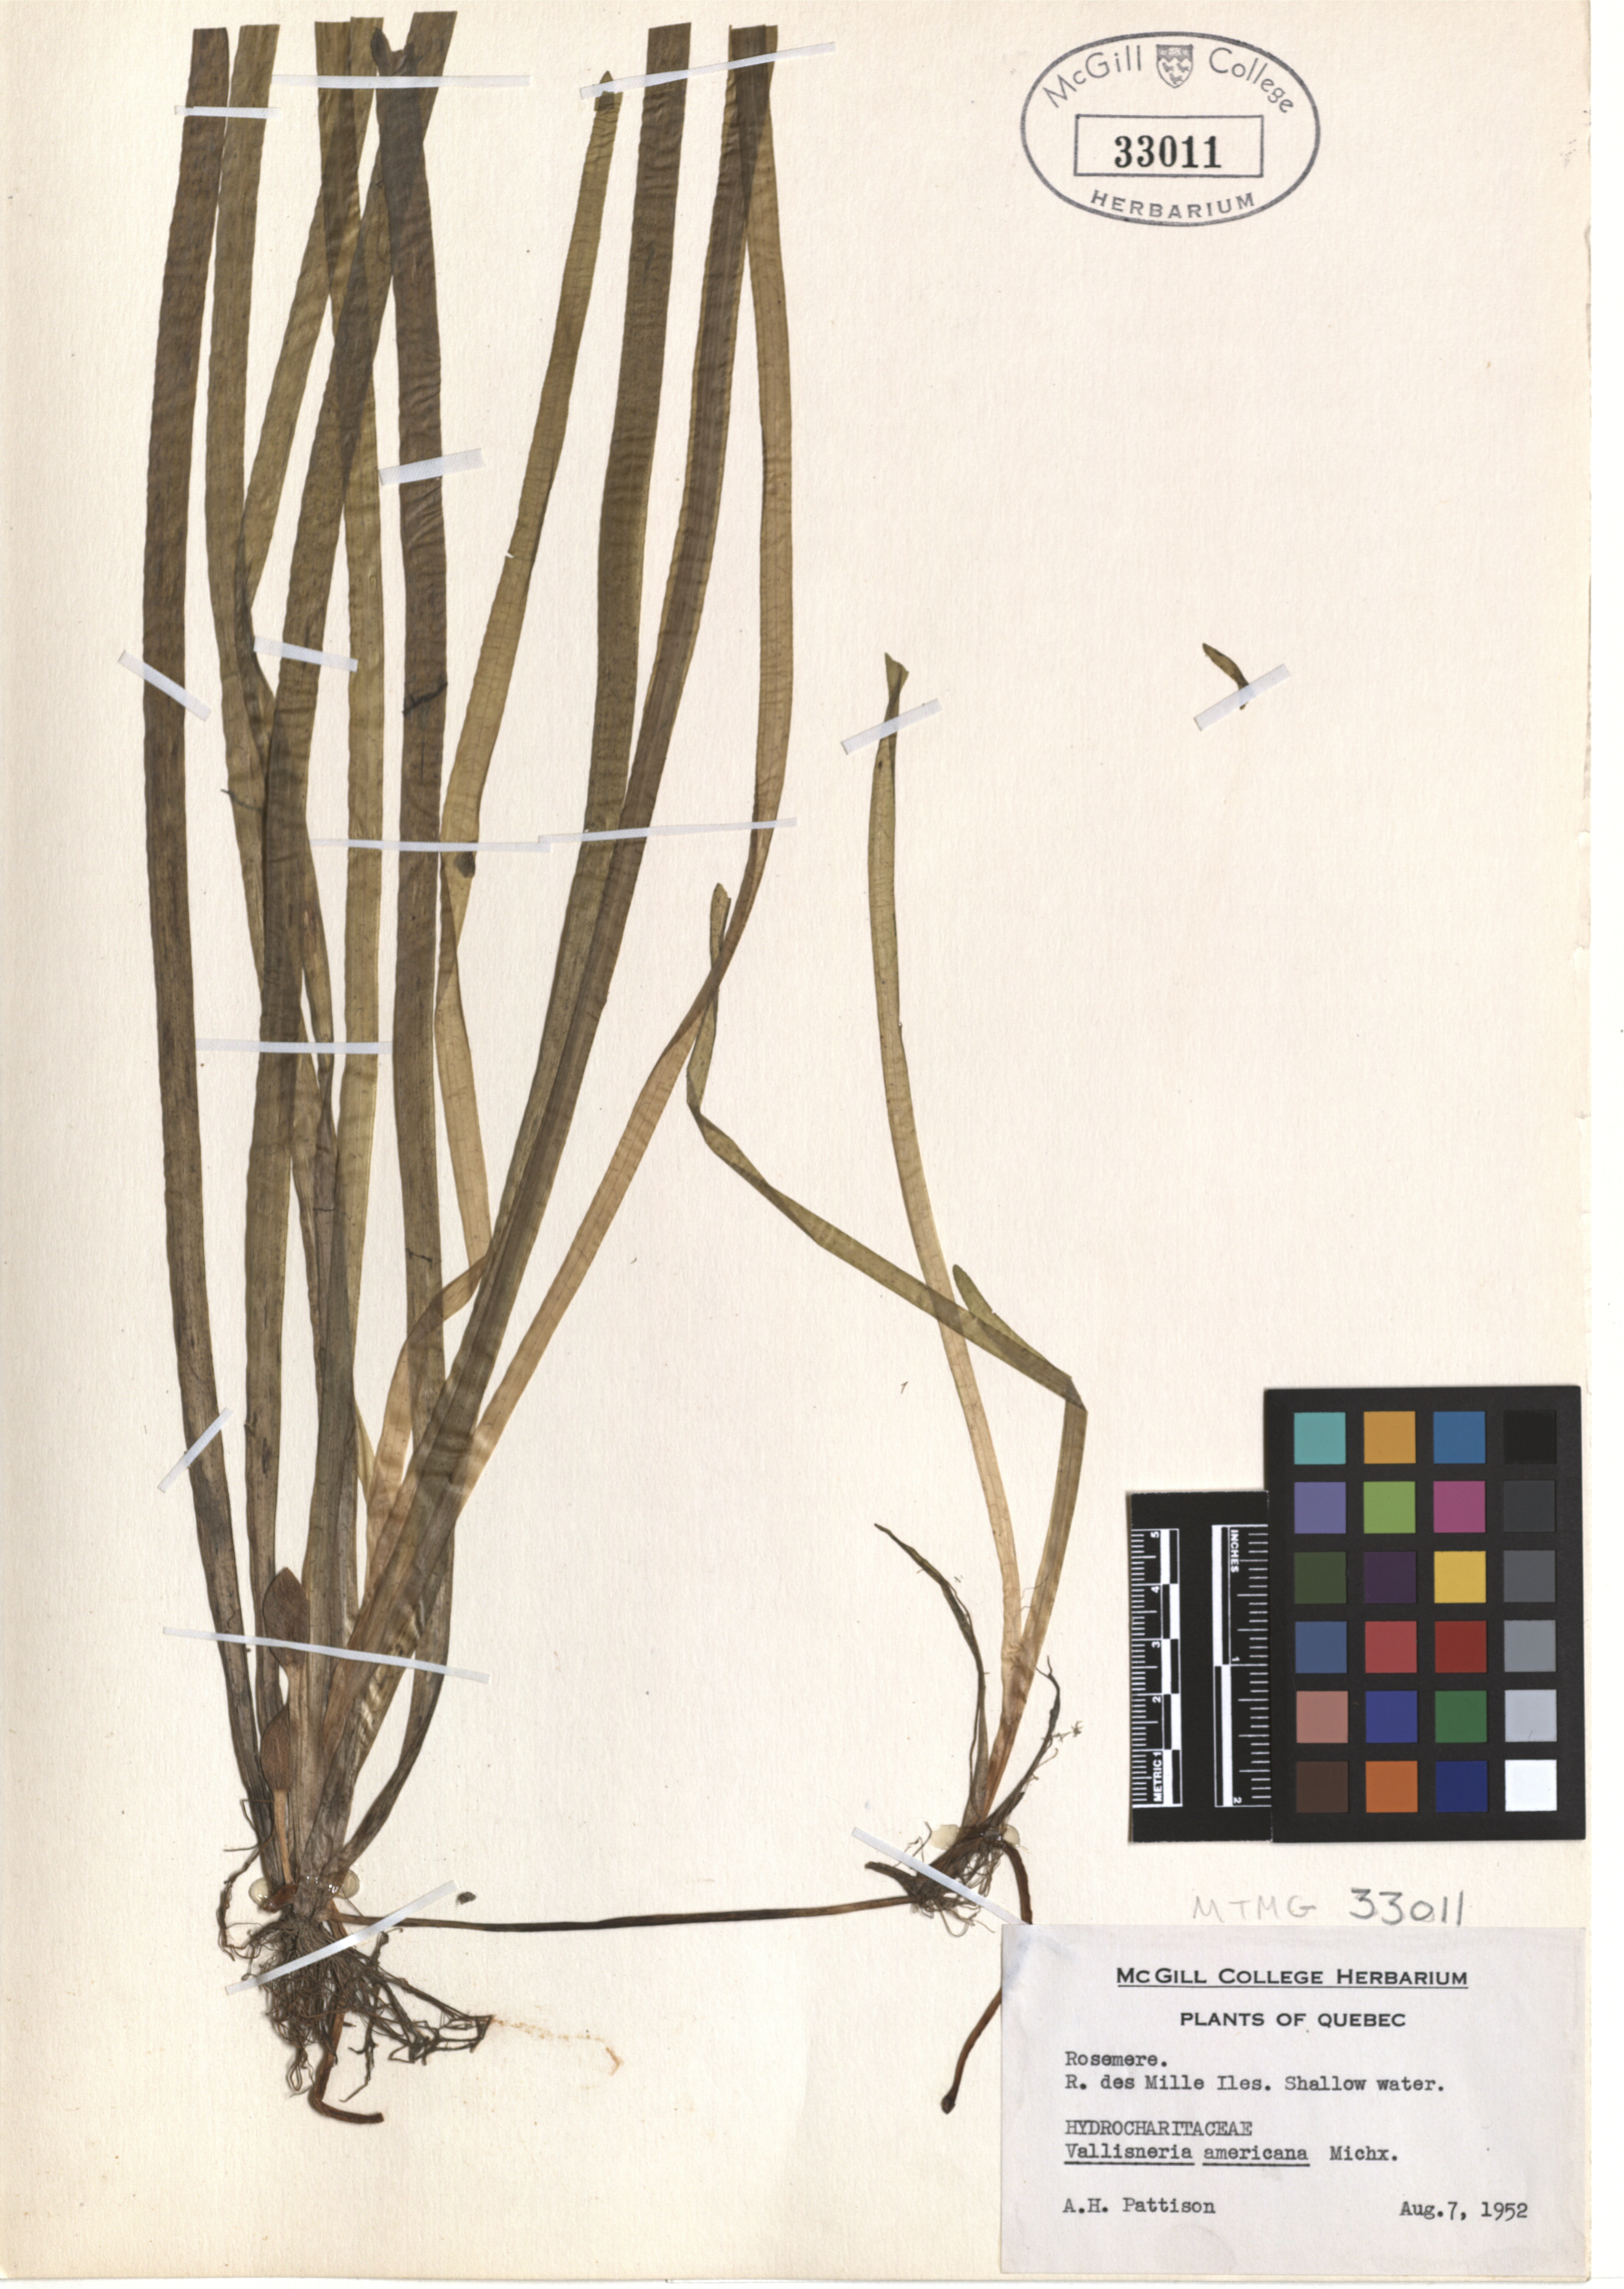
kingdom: Plantae
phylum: Tracheophyta
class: Liliopsida
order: Alismatales
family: Hydrocharitaceae
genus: Vallisneria
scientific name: Vallisneria americana
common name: American eelgrass
